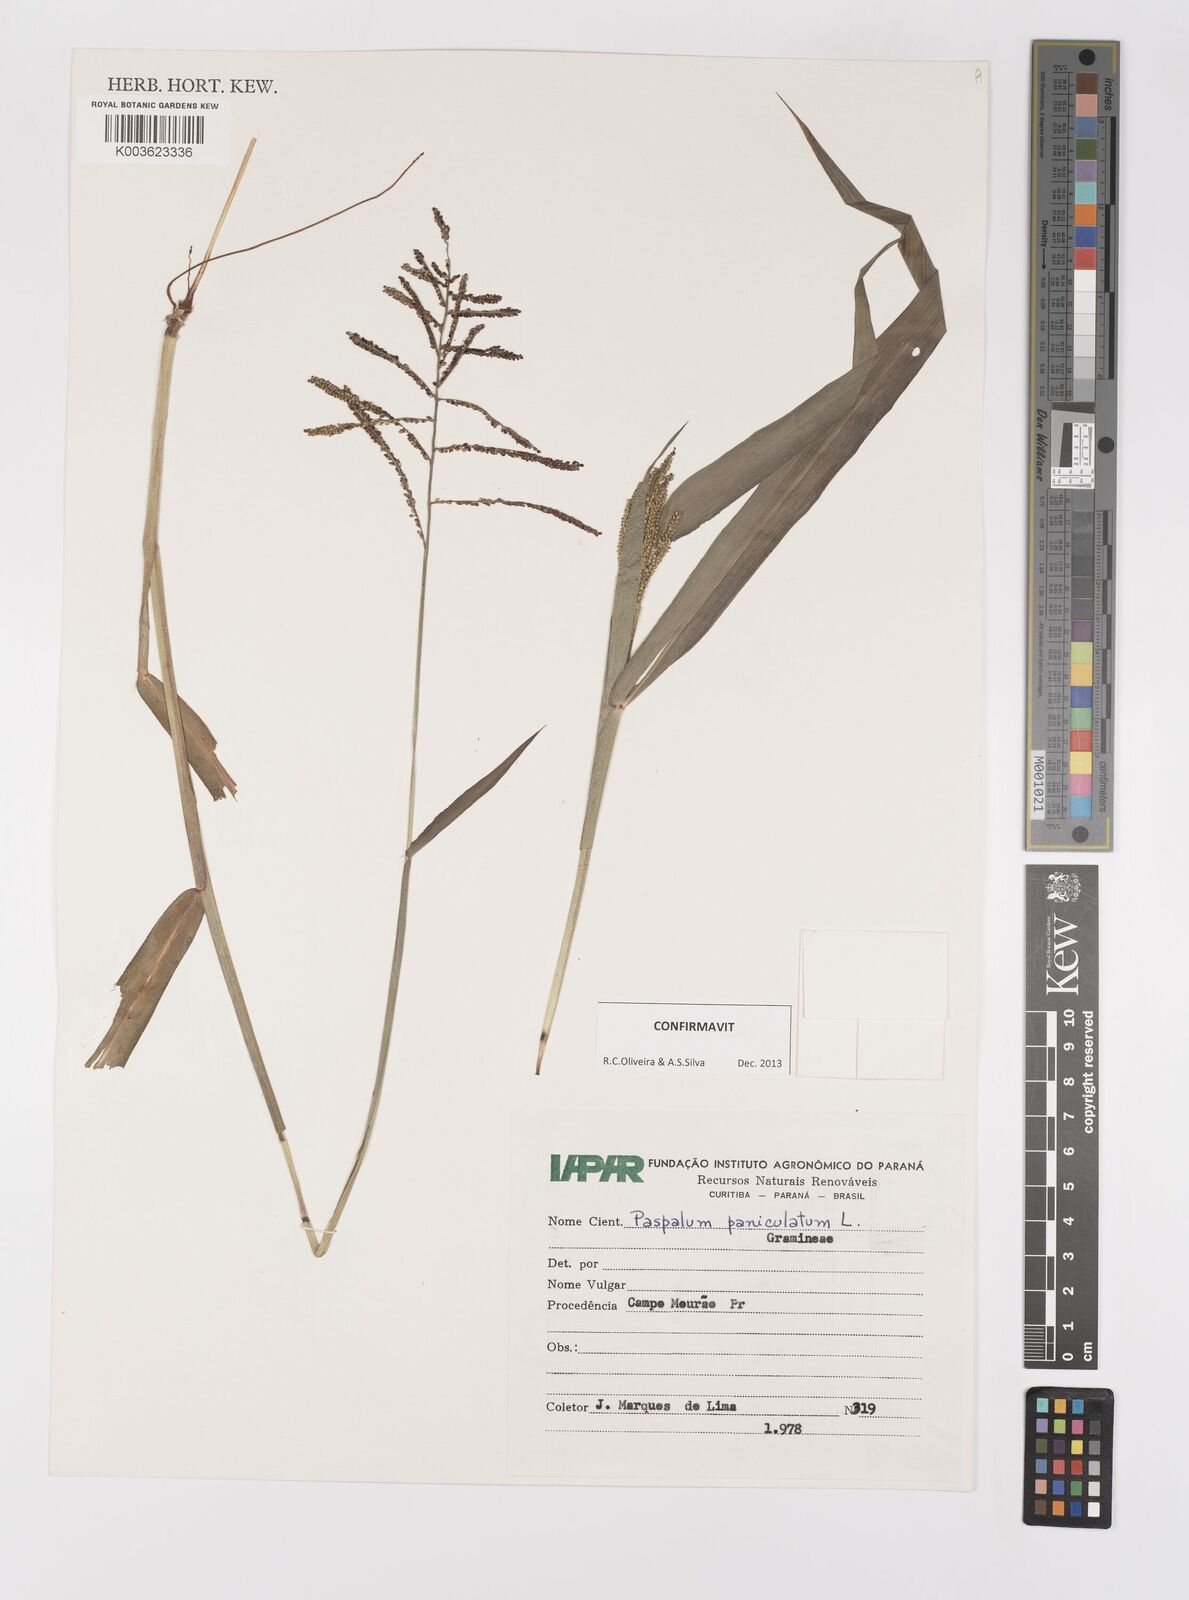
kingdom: Plantae
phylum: Tracheophyta
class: Liliopsida
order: Poales
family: Poaceae
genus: Paspalum
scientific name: Paspalum paniculatum
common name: Arrocillo
